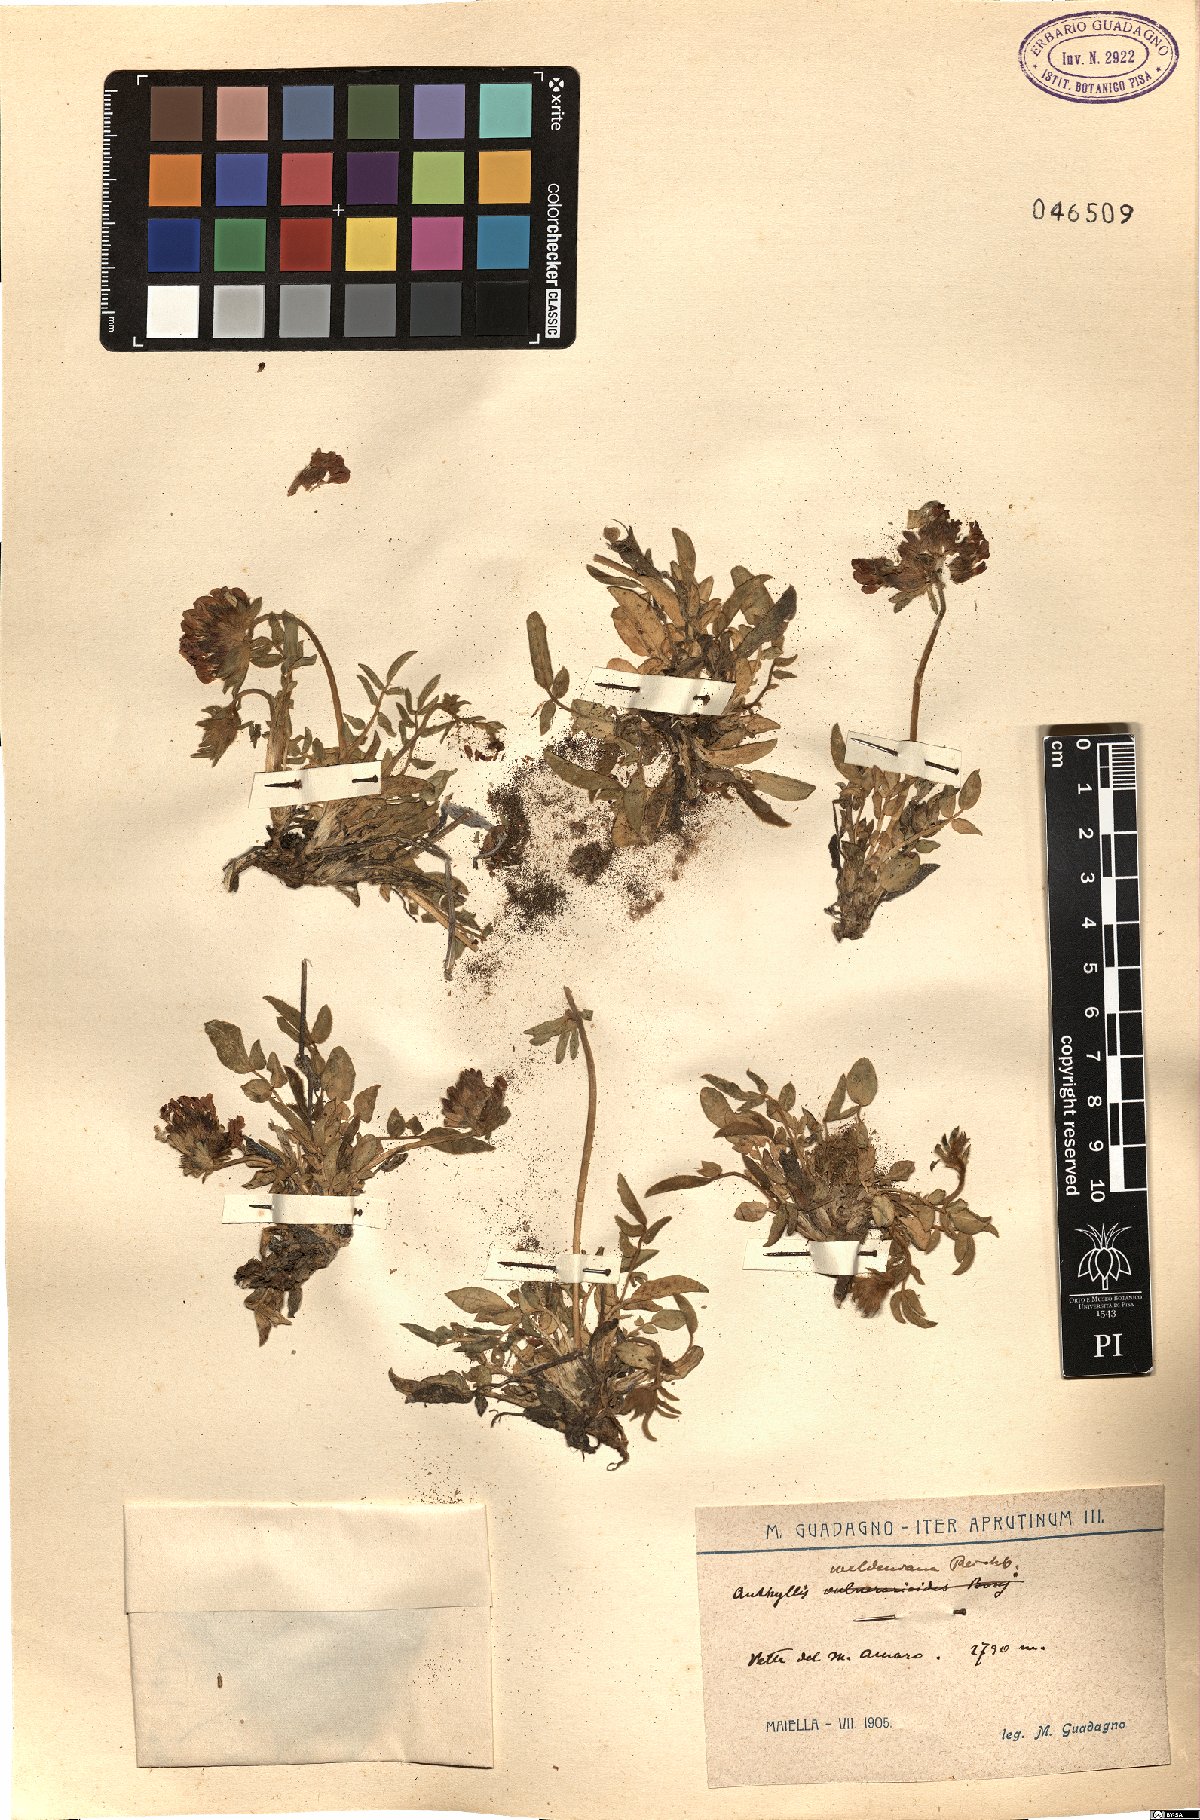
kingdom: Plantae
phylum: Tracheophyta
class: Magnoliopsida
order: Fabales
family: Fabaceae
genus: Anthyllis
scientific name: Anthyllis vulneraria
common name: Kidney vetch
